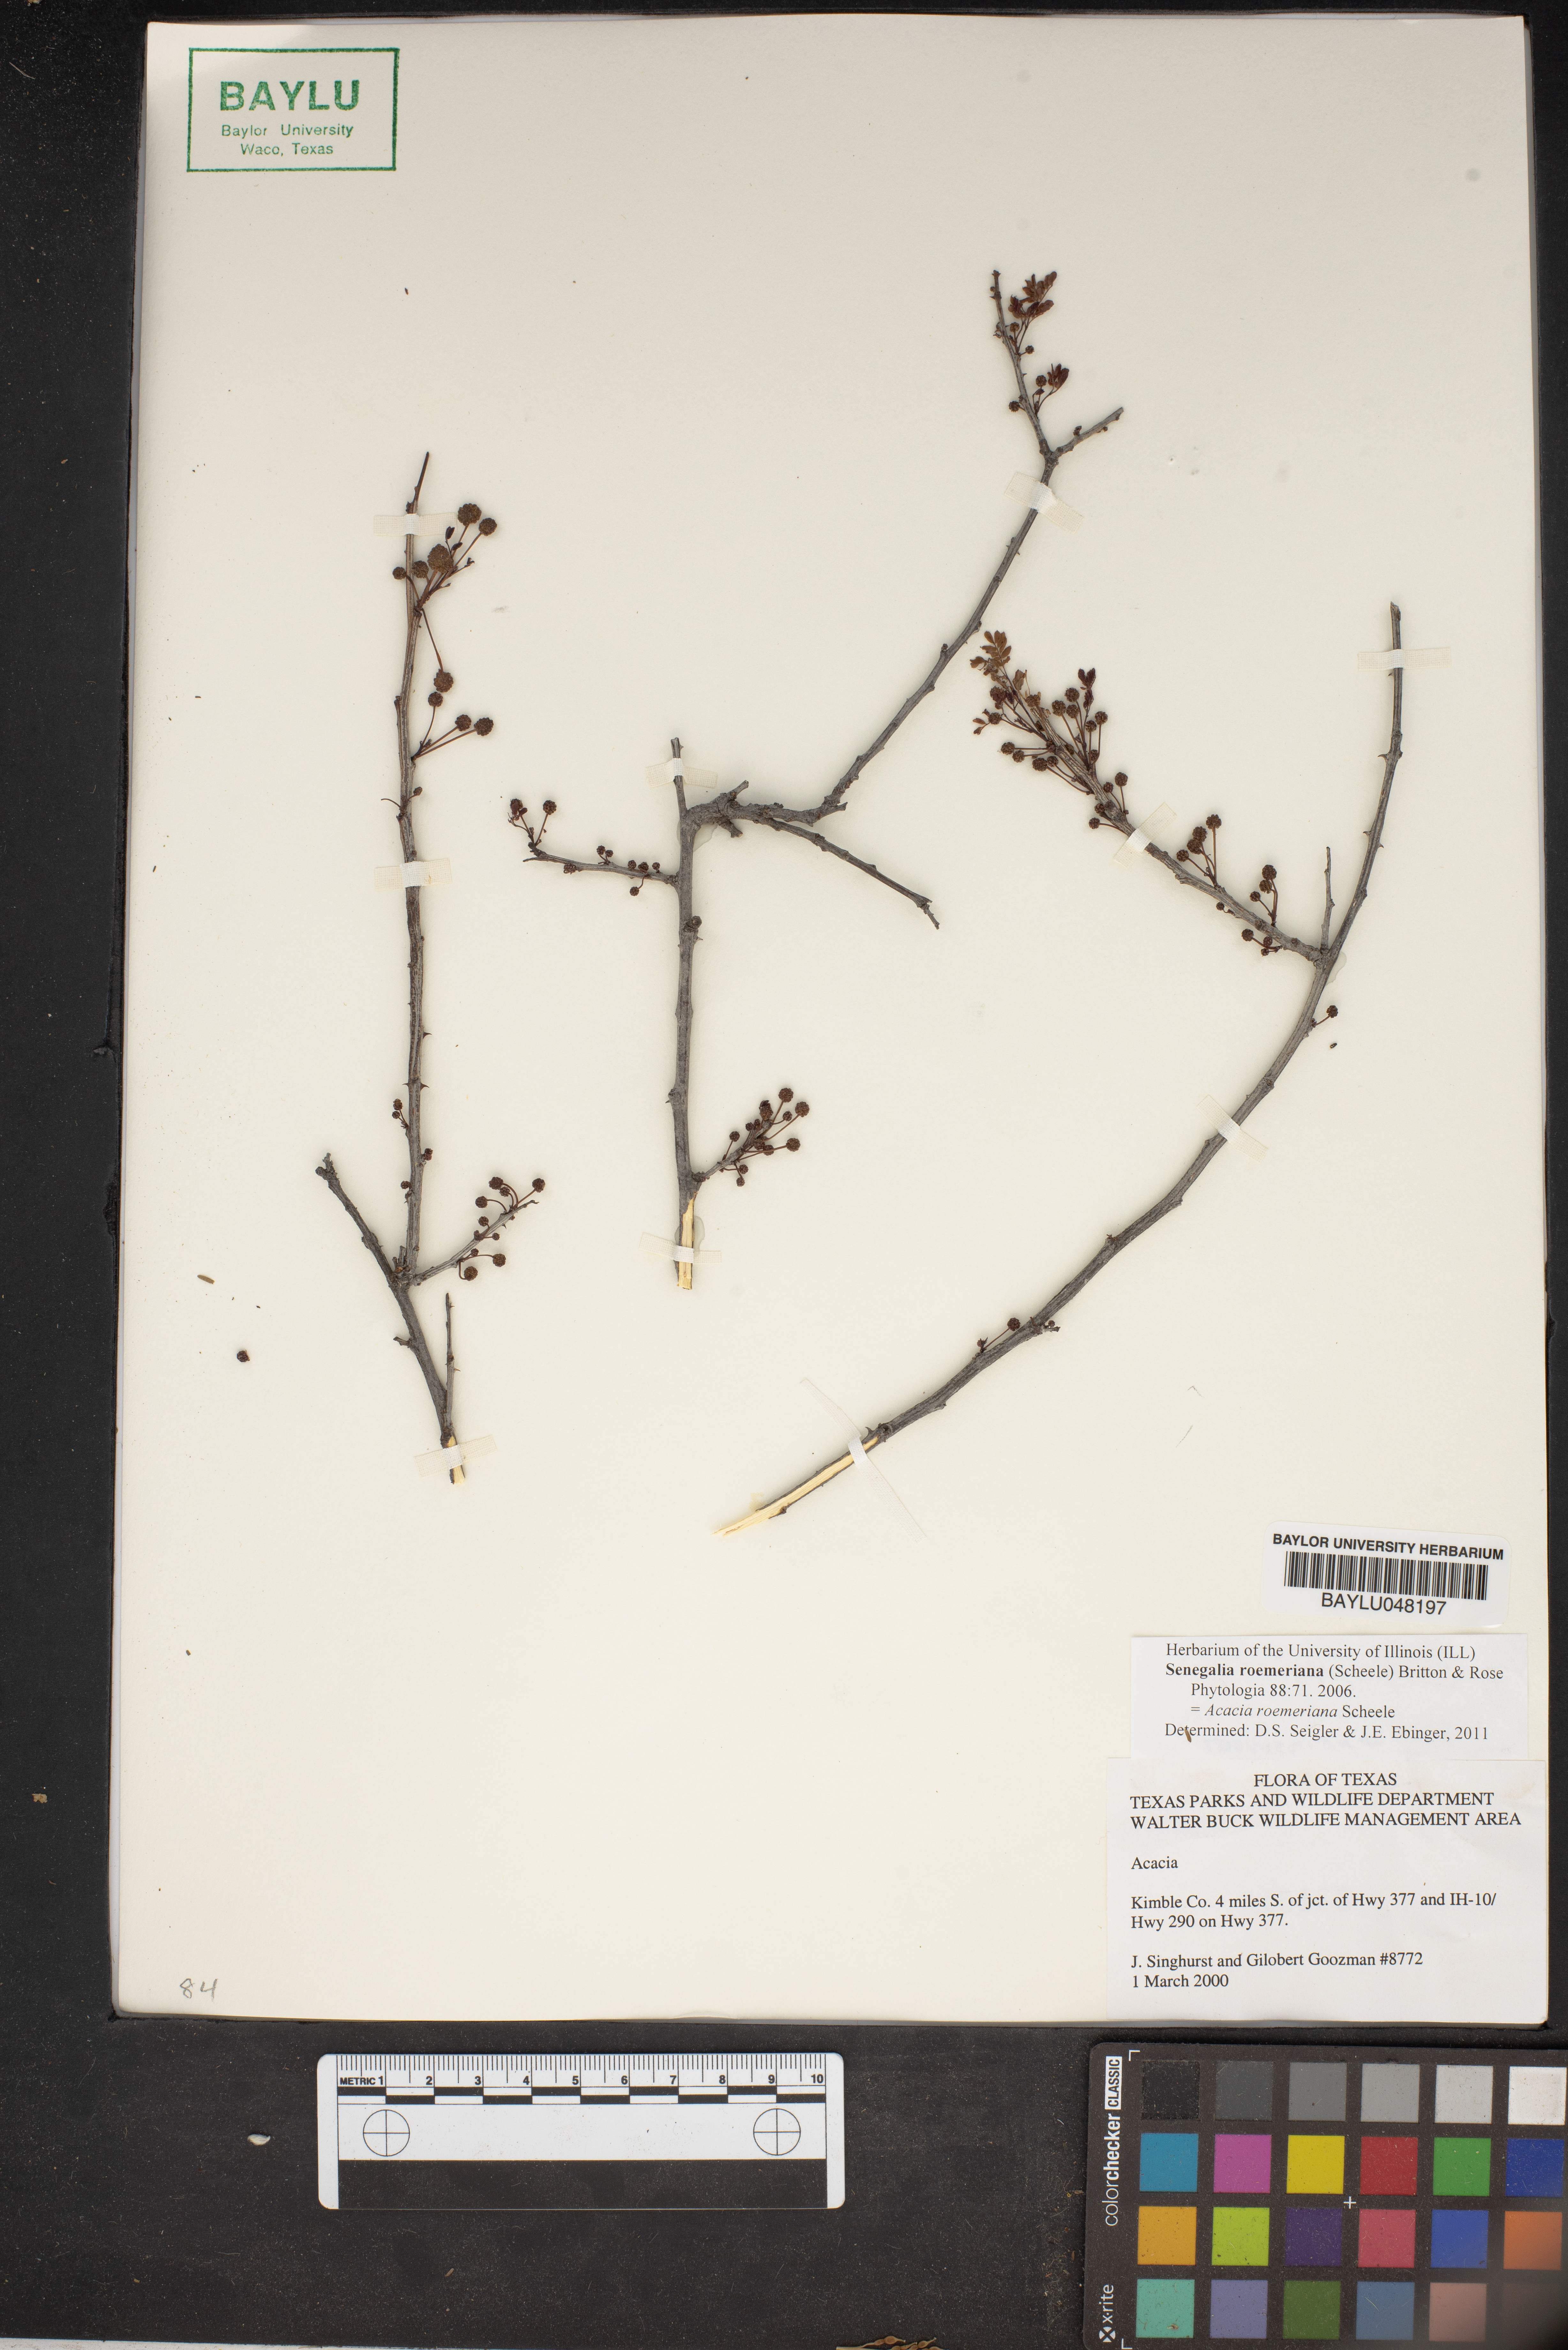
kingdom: Plantae
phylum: Tracheophyta
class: Magnoliopsida
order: Fabales
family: Fabaceae
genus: Senegalia
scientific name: Senegalia roemeriana
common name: Roemer's acacia
